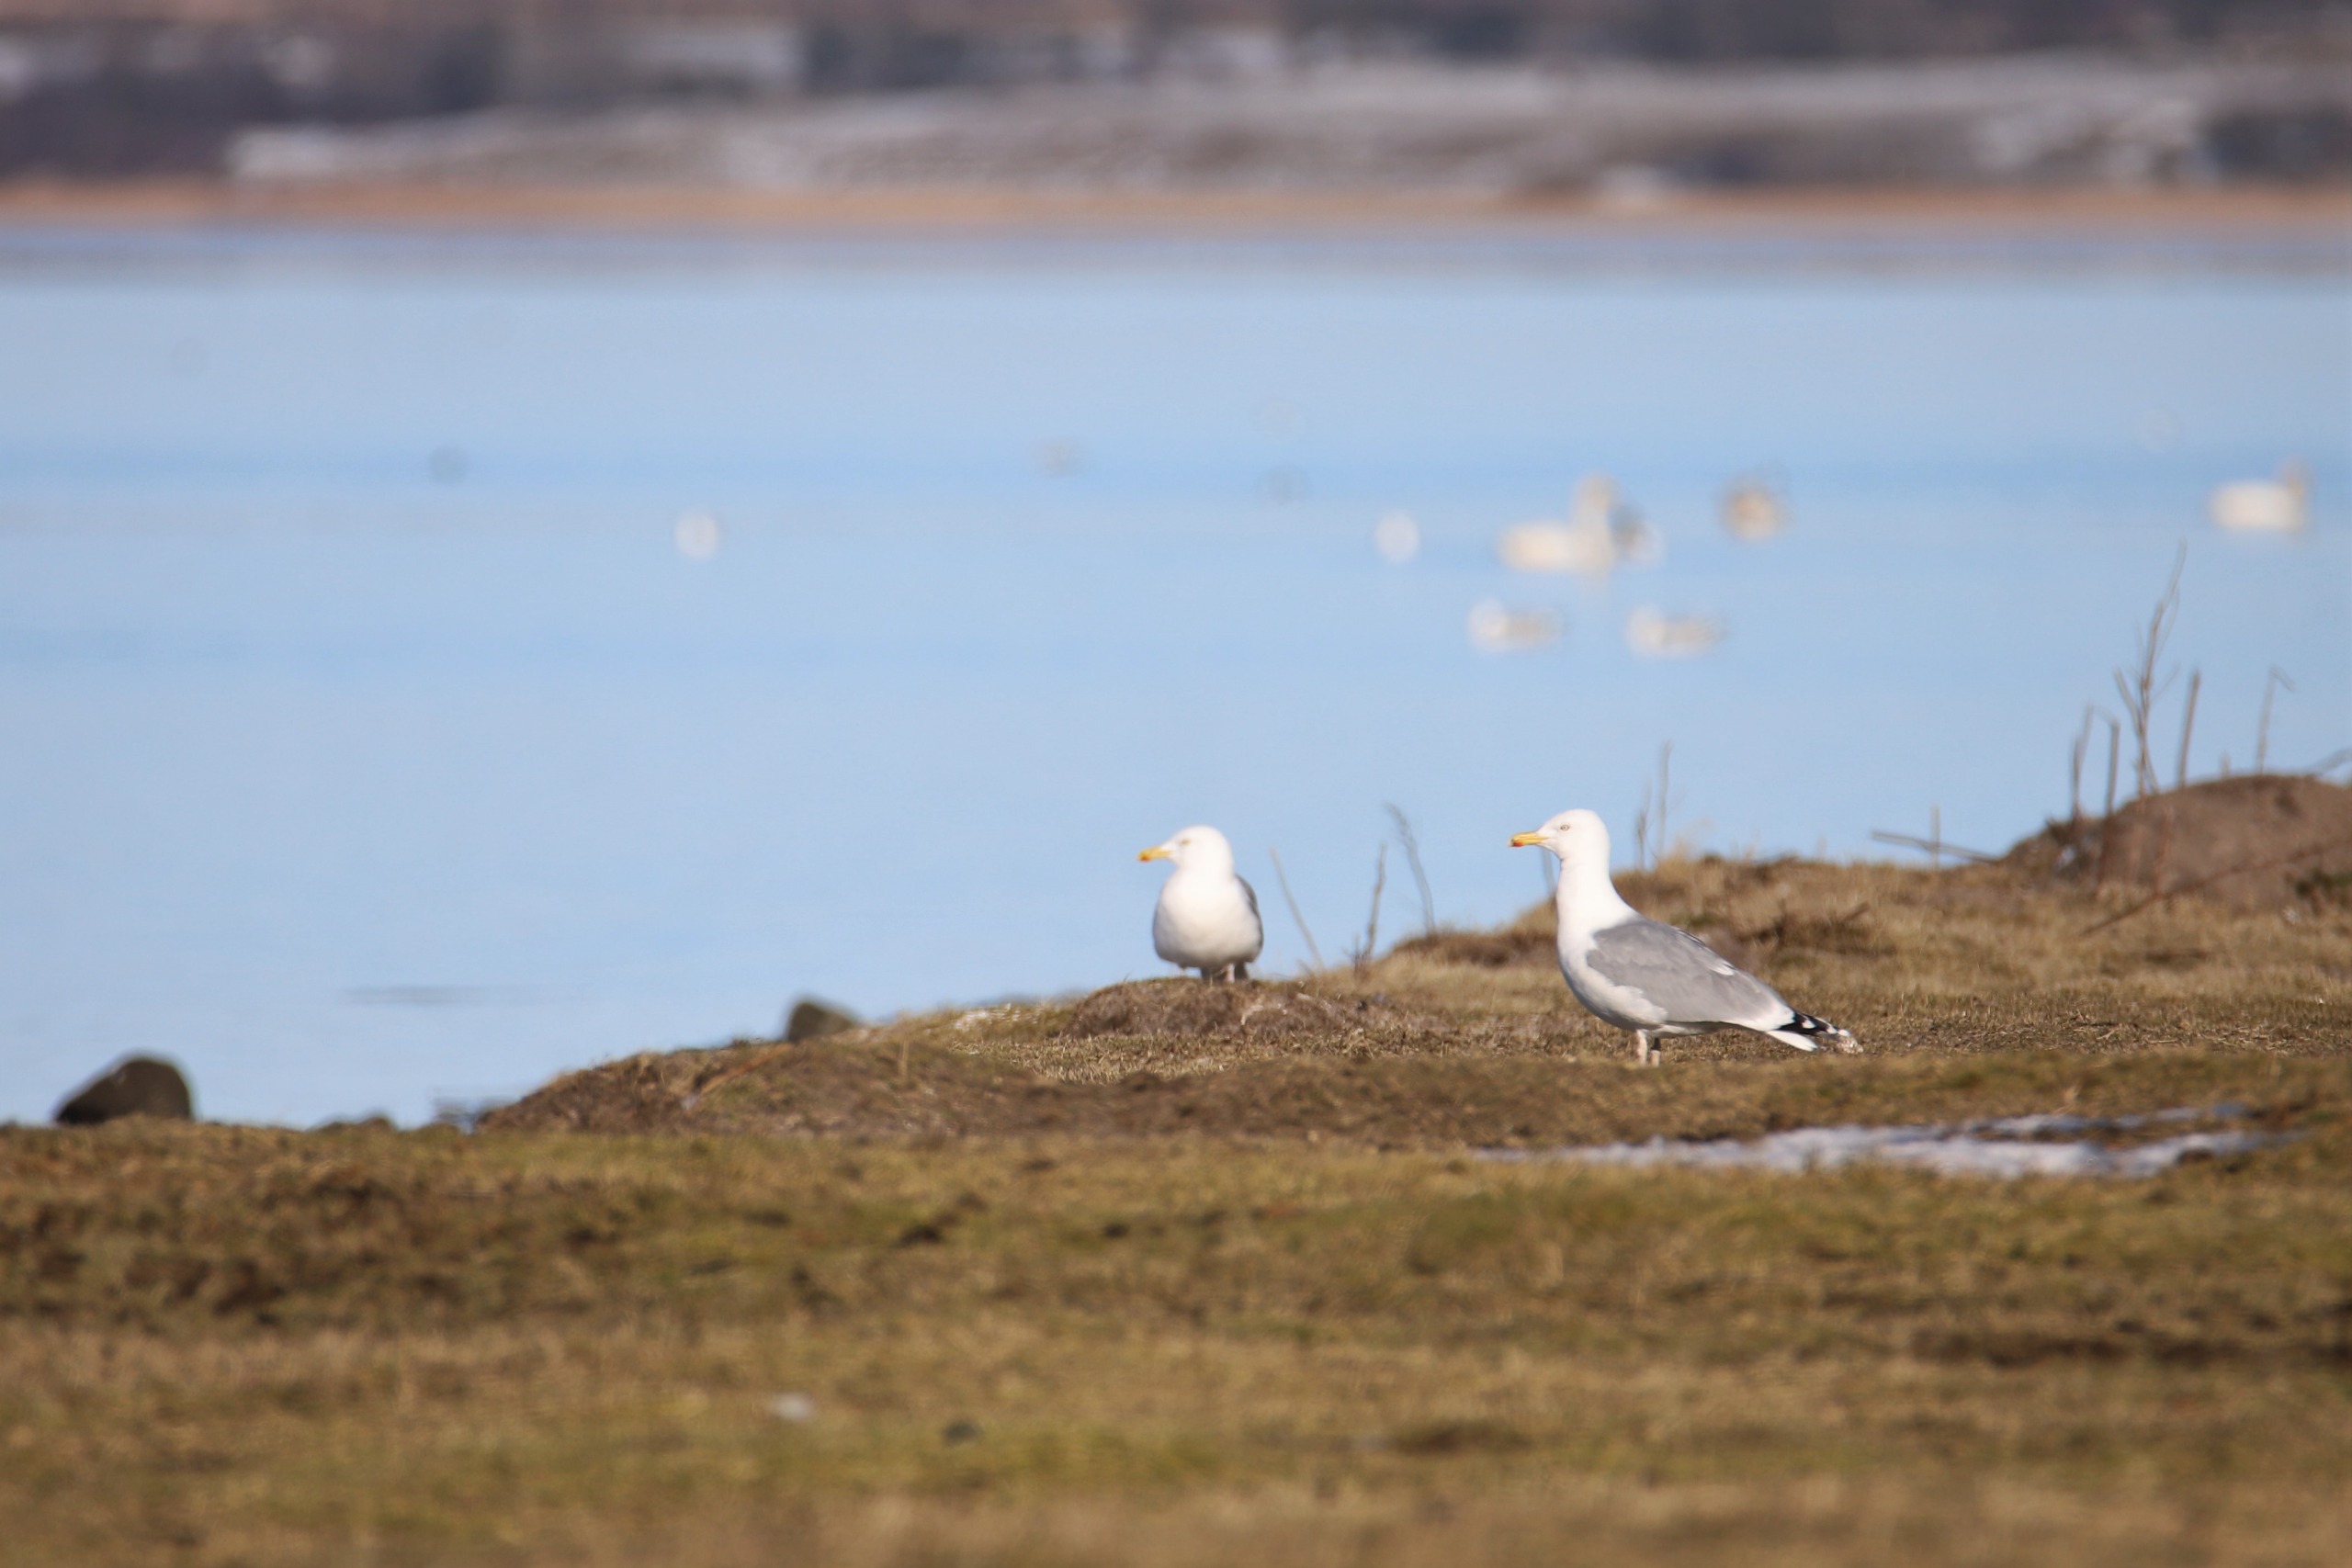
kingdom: Animalia
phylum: Chordata
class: Aves
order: Charadriiformes
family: Laridae
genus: Larus
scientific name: Larus argentatus
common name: Sølvmåge
